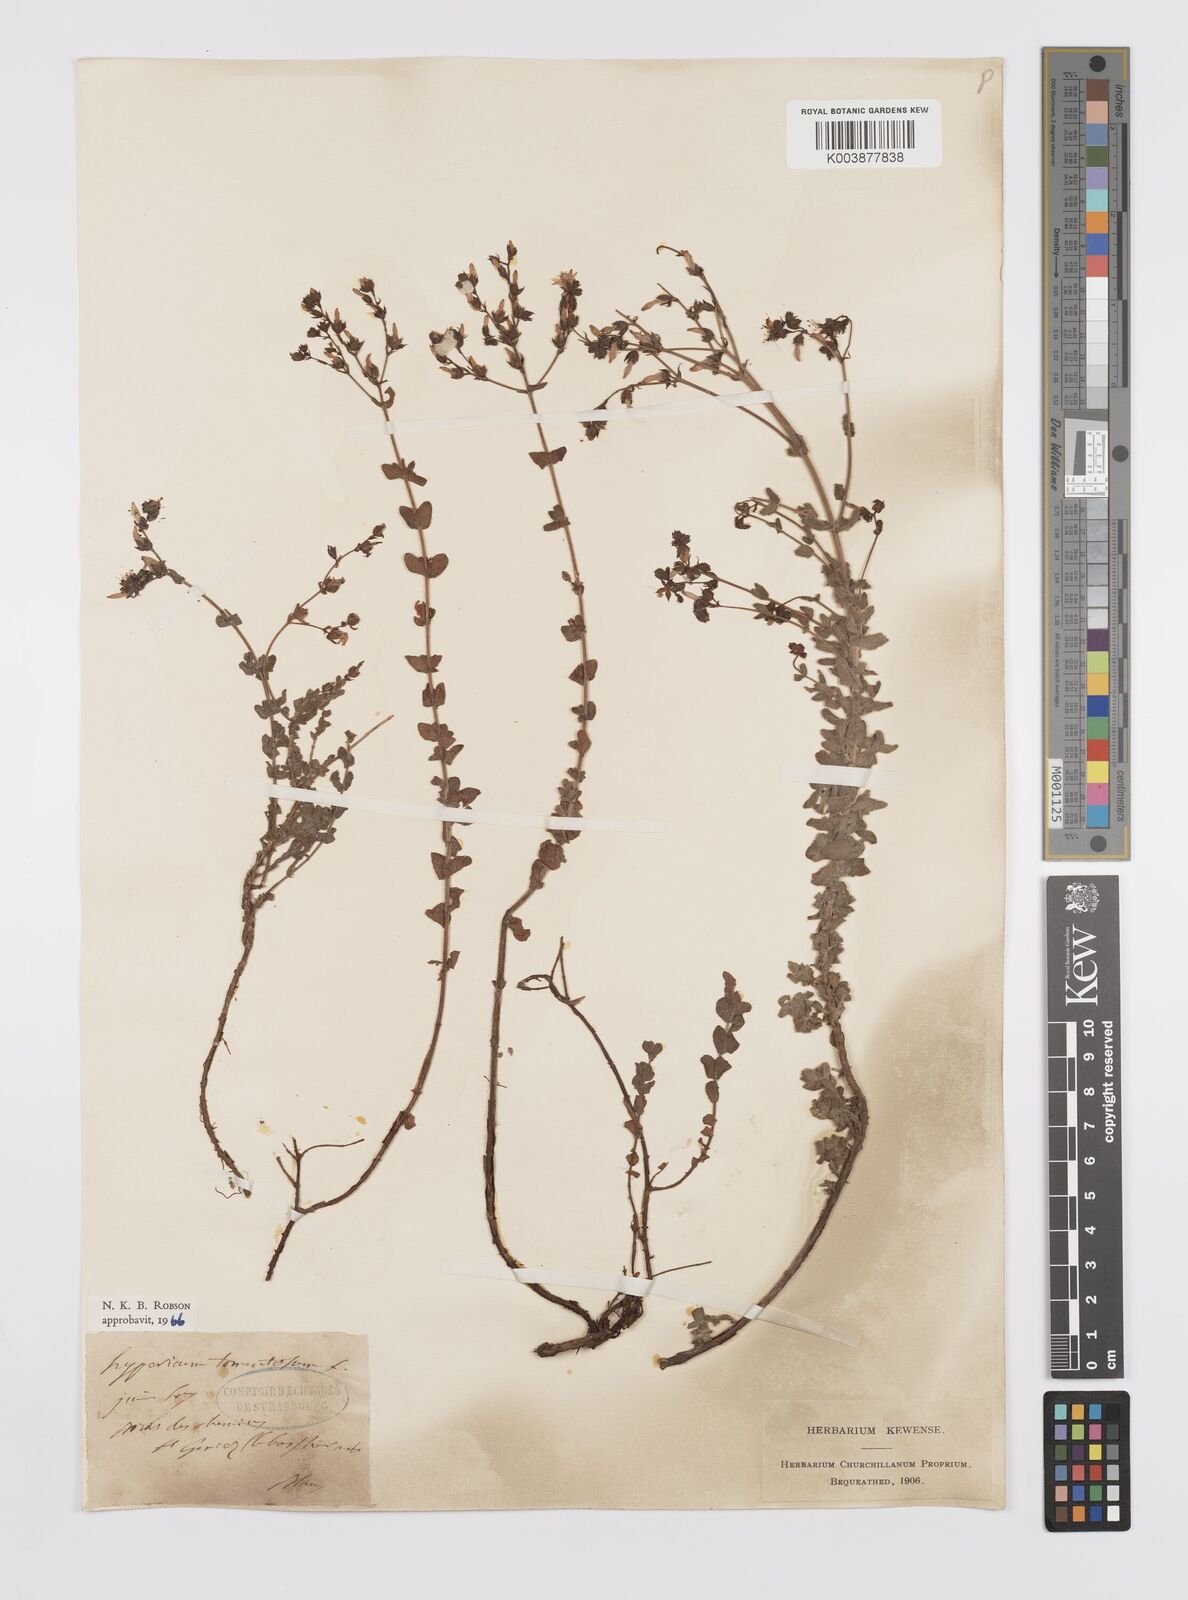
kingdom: Plantae
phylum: Tracheophyta
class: Magnoliopsida
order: Malpighiales
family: Hypericaceae
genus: Hypericum
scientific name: Hypericum tomentosum
